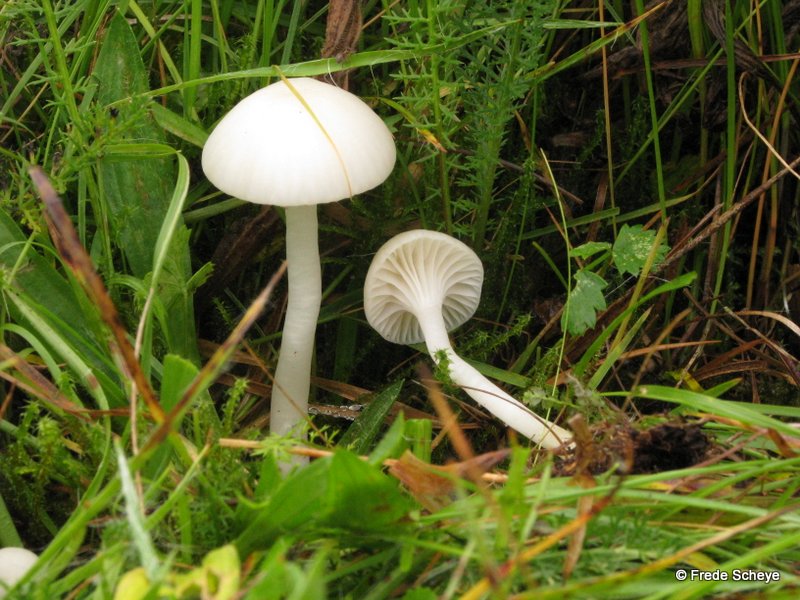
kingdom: Fungi
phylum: Basidiomycota
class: Agaricomycetes
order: Agaricales
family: Hygrophoraceae
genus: Cuphophyllus
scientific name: Cuphophyllus virgineus
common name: snehvid vokshat
